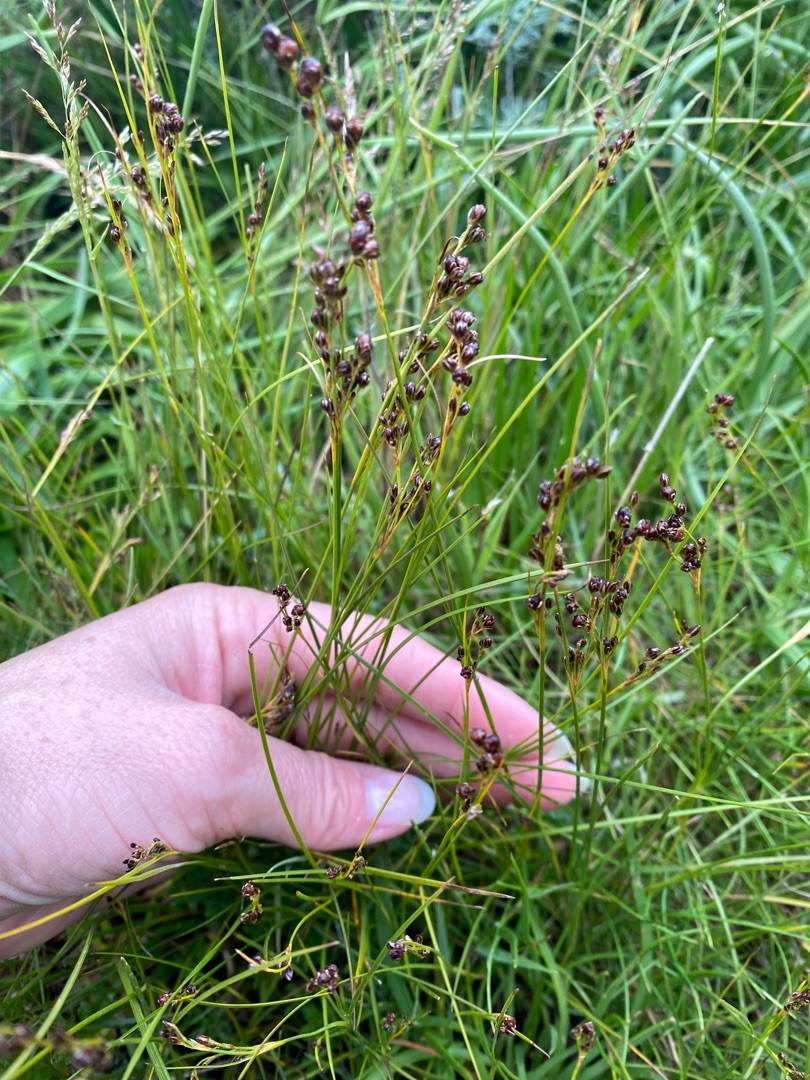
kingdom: Plantae
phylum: Tracheophyta
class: Liliopsida
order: Poales
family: Juncaceae
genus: Juncus
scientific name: Juncus gerardi
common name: Harril
